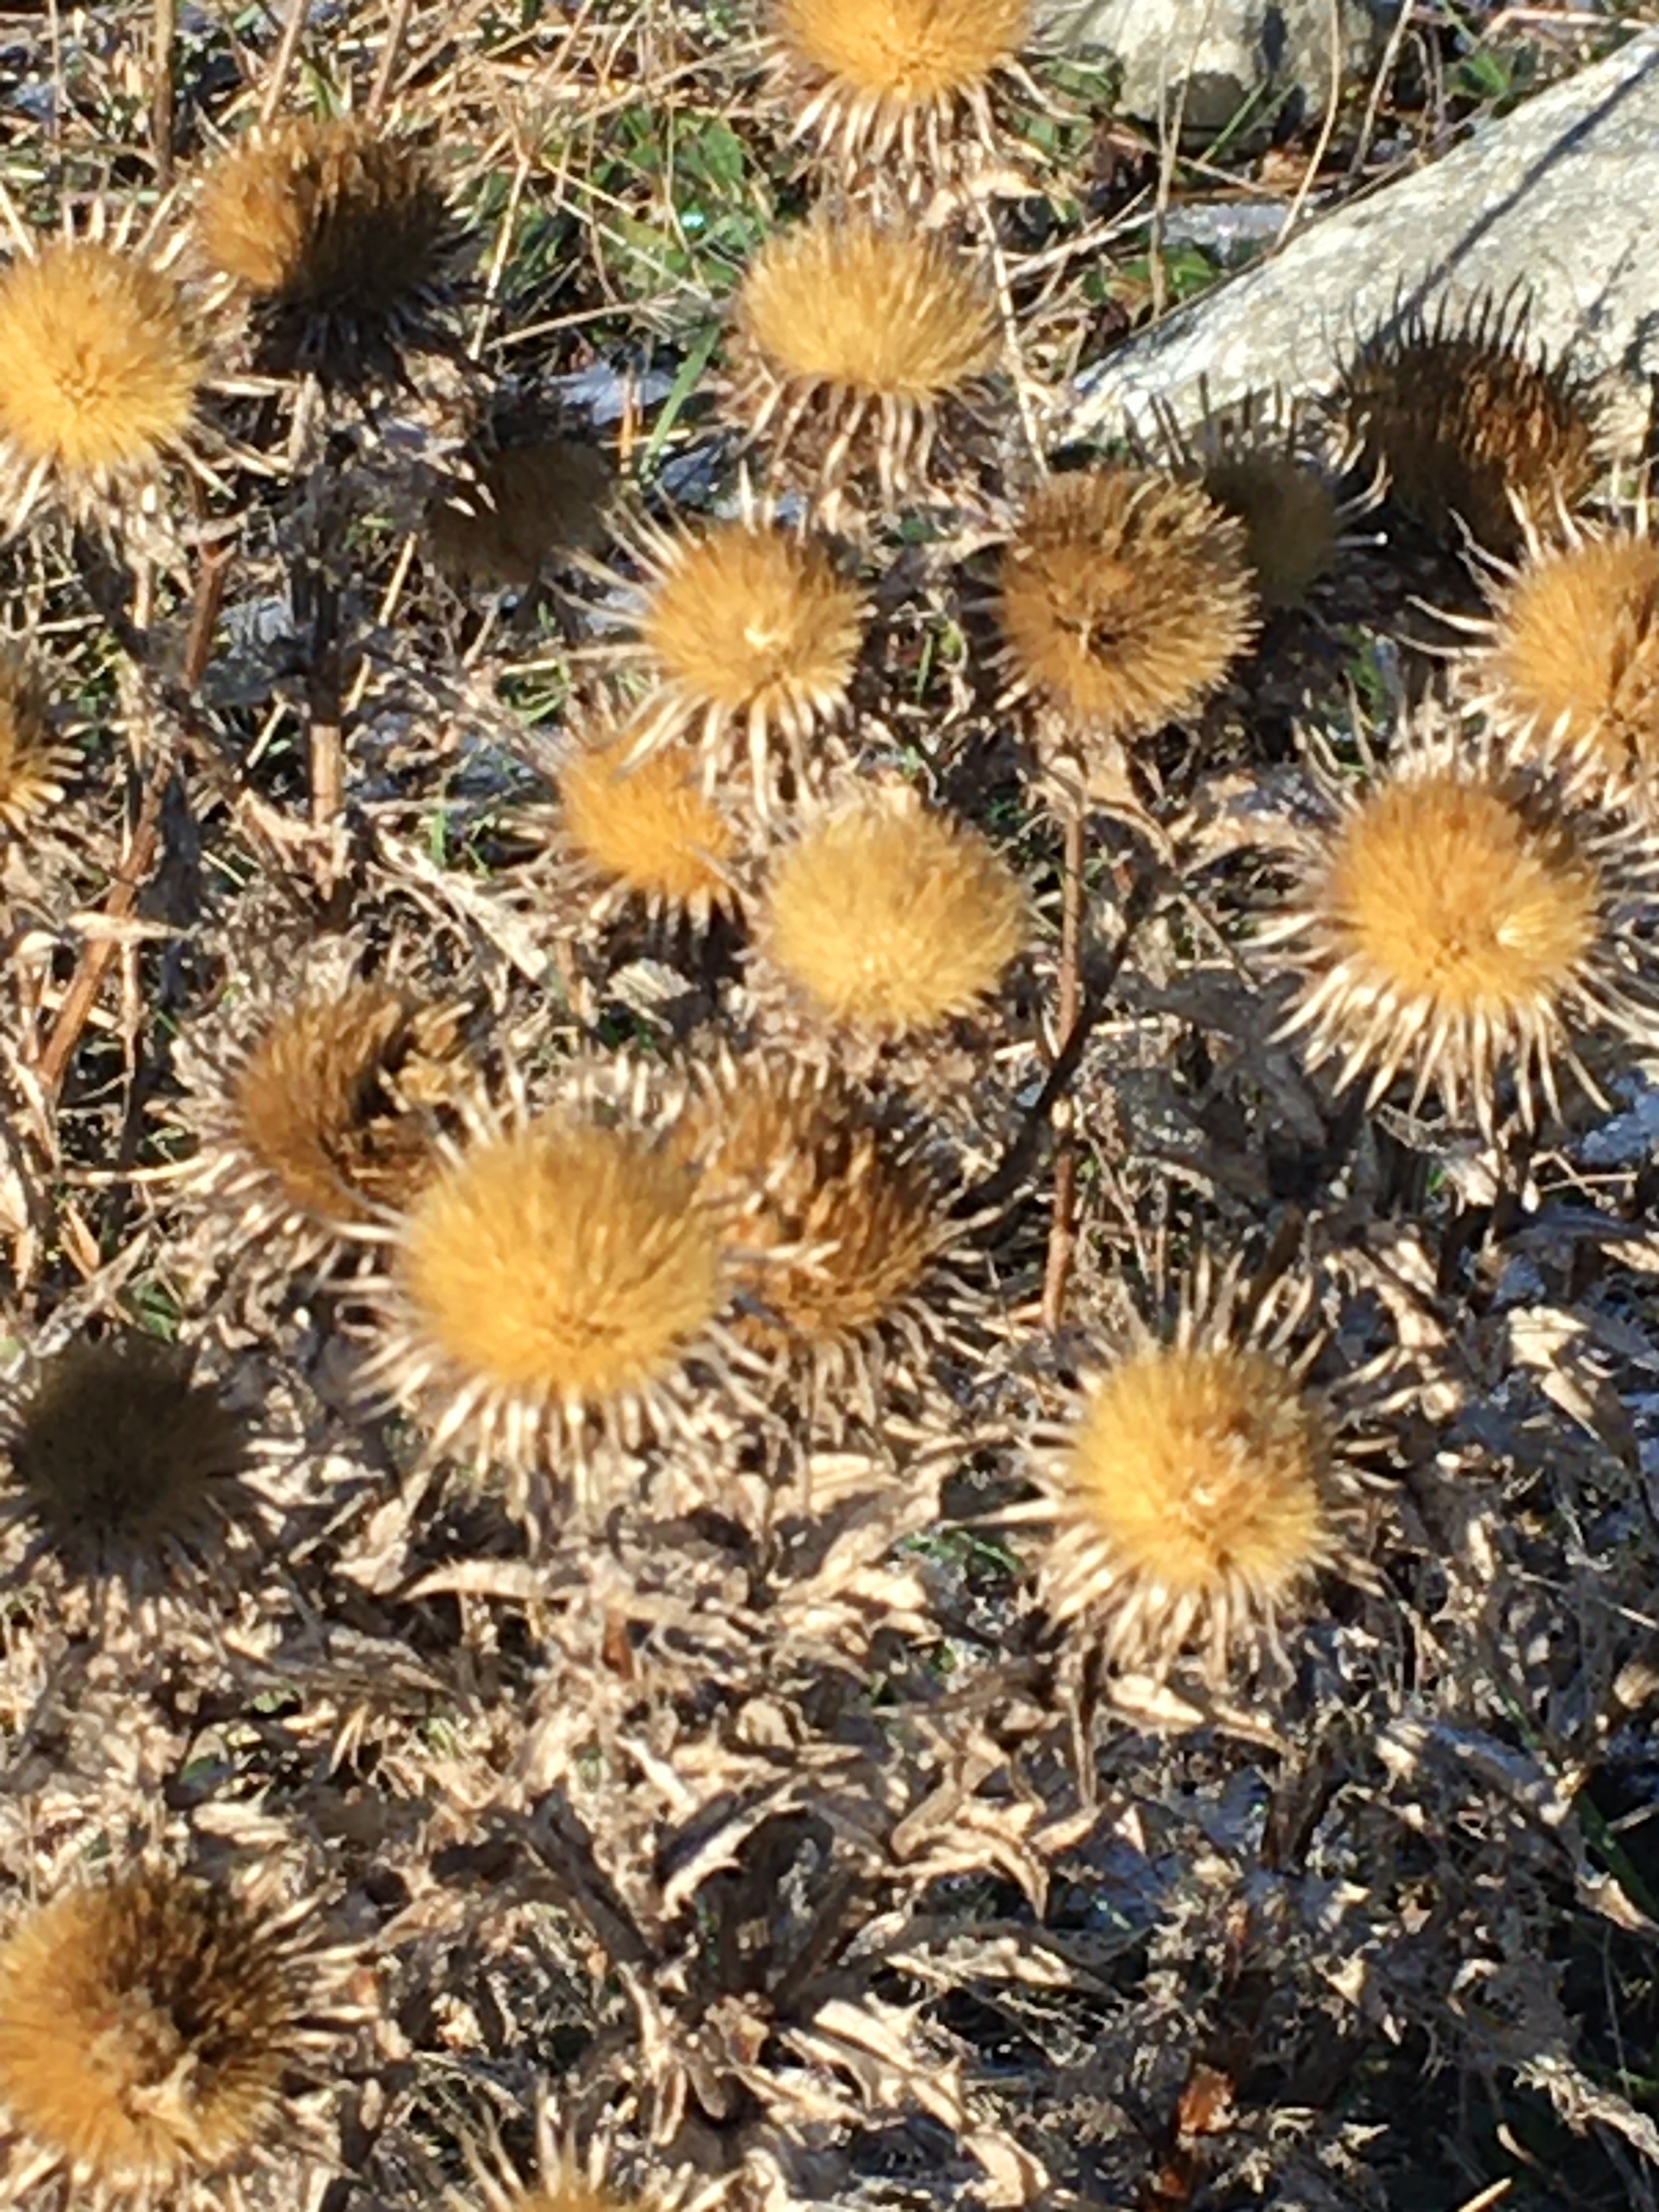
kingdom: Plantae
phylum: Tracheophyta
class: Magnoliopsida
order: Asterales
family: Asteraceae
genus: Carlina
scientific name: Carlina vulgaris
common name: Bakketidsel
